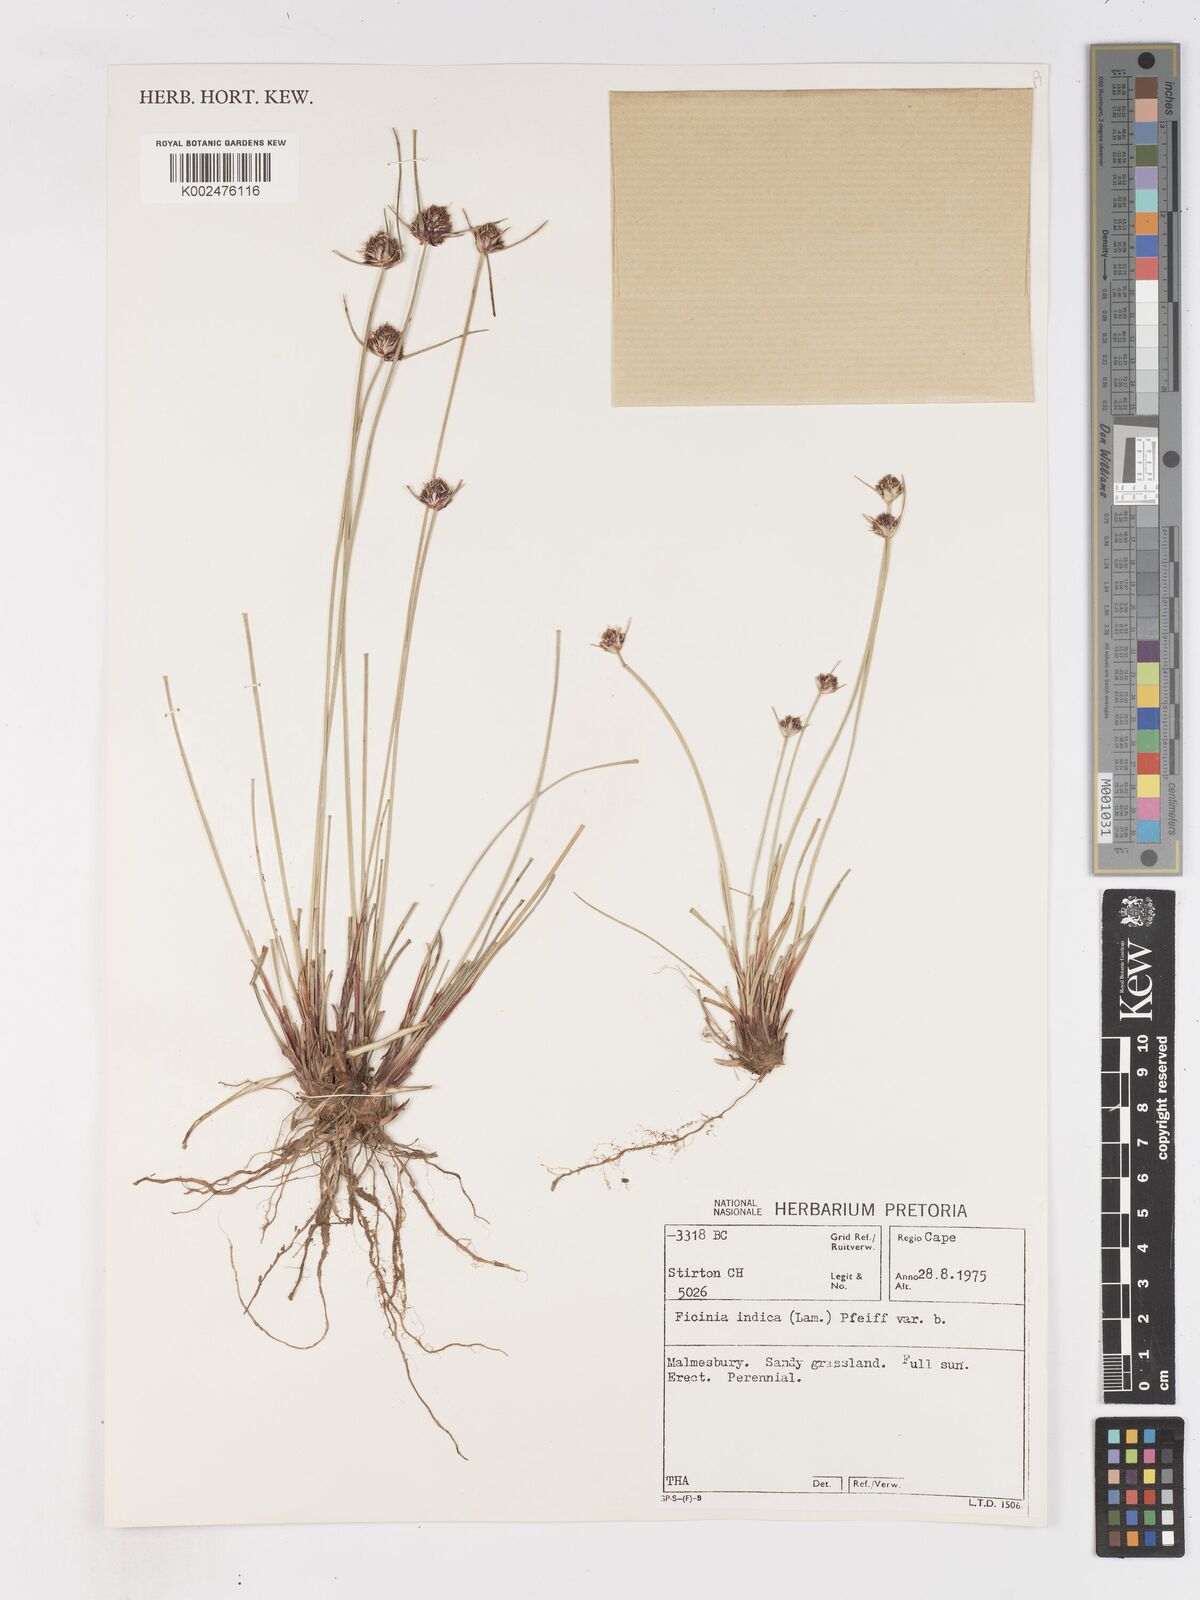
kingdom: Plantae
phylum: Tracheophyta
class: Liliopsida
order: Poales
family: Cyperaceae
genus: Ficinia
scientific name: Ficinia indica
